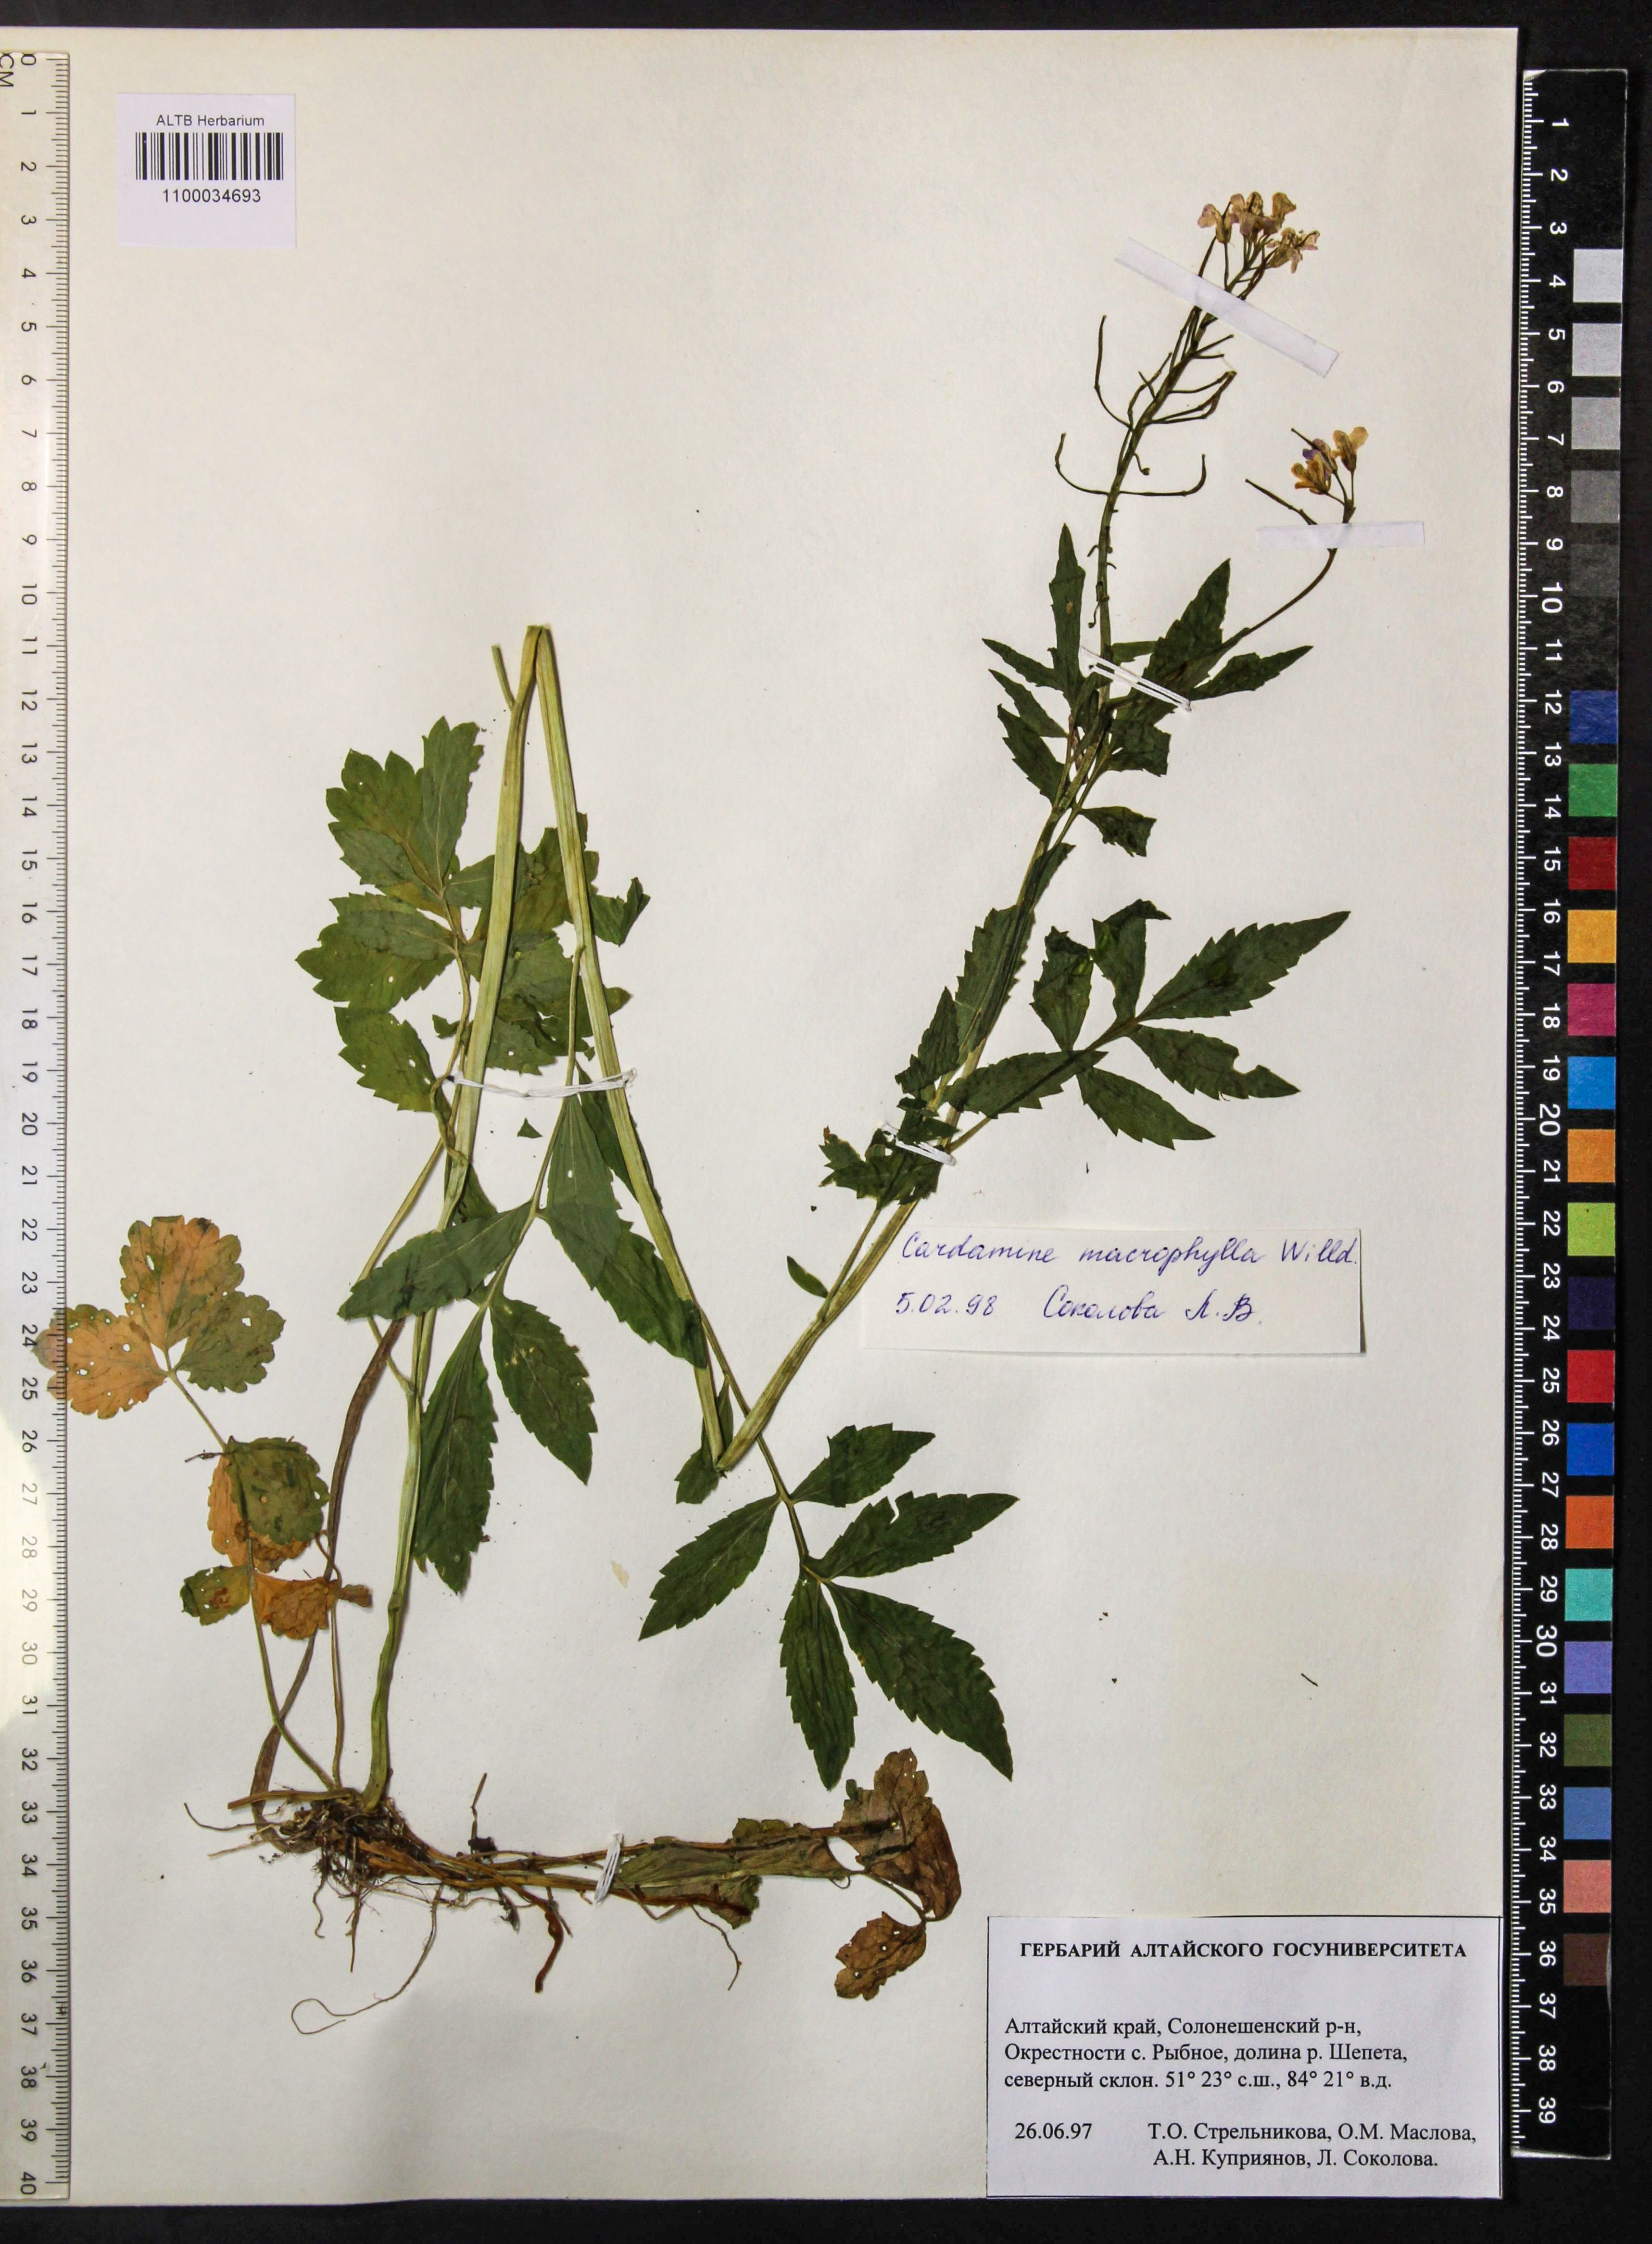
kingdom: Plantae
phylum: Tracheophyta
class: Magnoliopsida
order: Brassicales
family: Brassicaceae
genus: Cardamine
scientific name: Cardamine macrophylla
